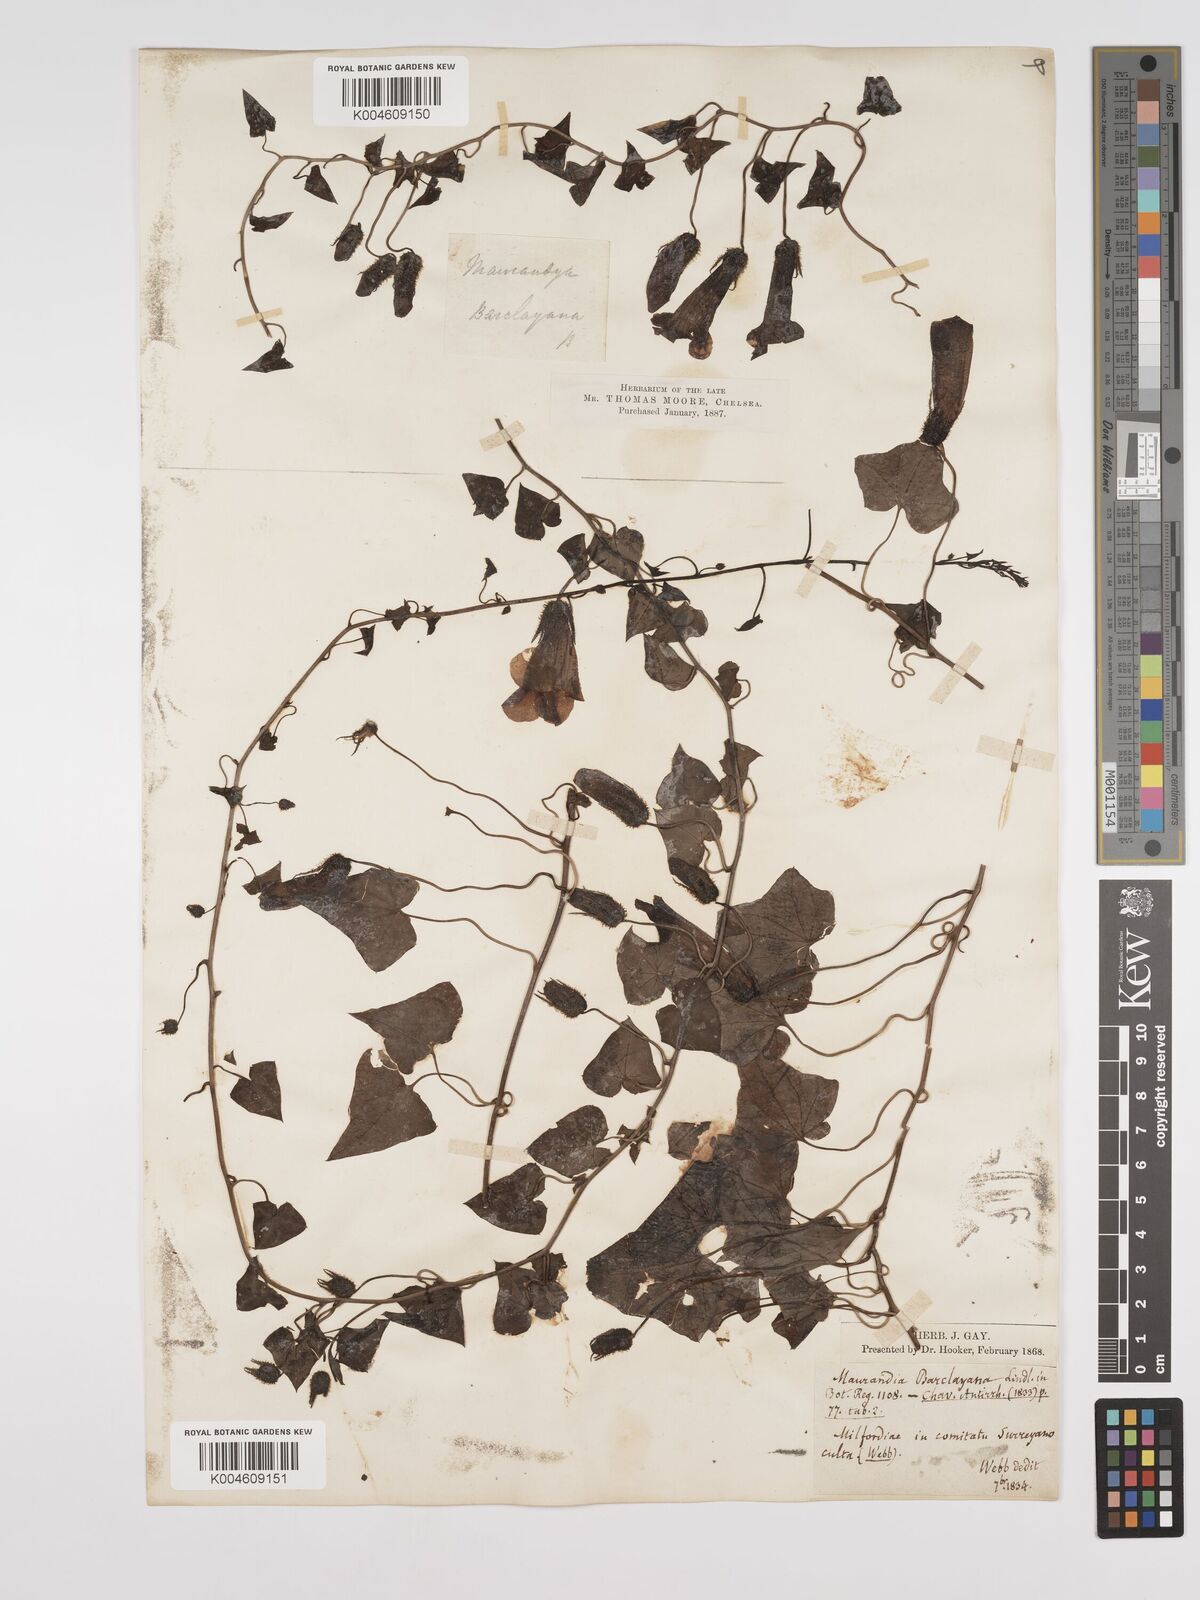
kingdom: Plantae
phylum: Tracheophyta
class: Magnoliopsida
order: Lamiales
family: Plantaginaceae
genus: Maurandya
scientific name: Maurandya barclayana
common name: Mexican viper
